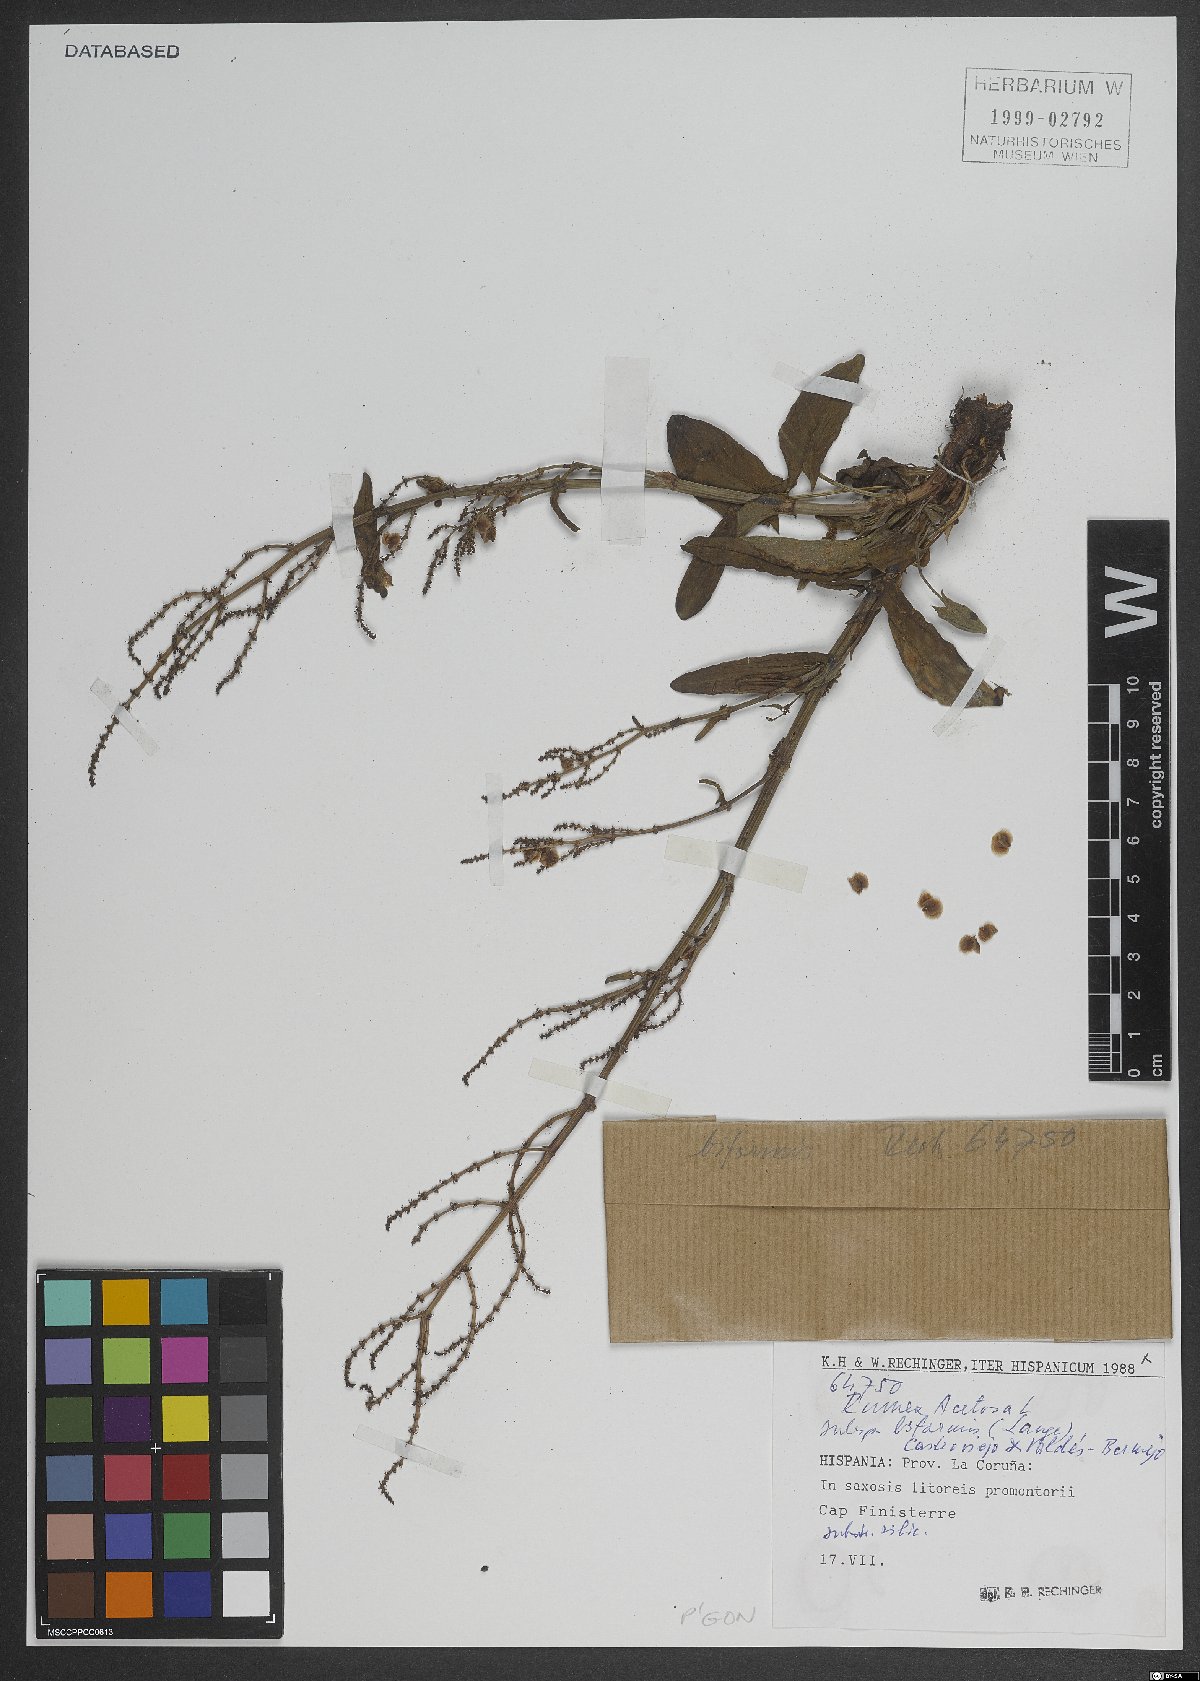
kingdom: Plantae
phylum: Tracheophyta
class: Magnoliopsida
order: Caryophyllales
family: Polygonaceae
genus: Rumex
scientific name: Rumex acetosa
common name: Garden sorrel
